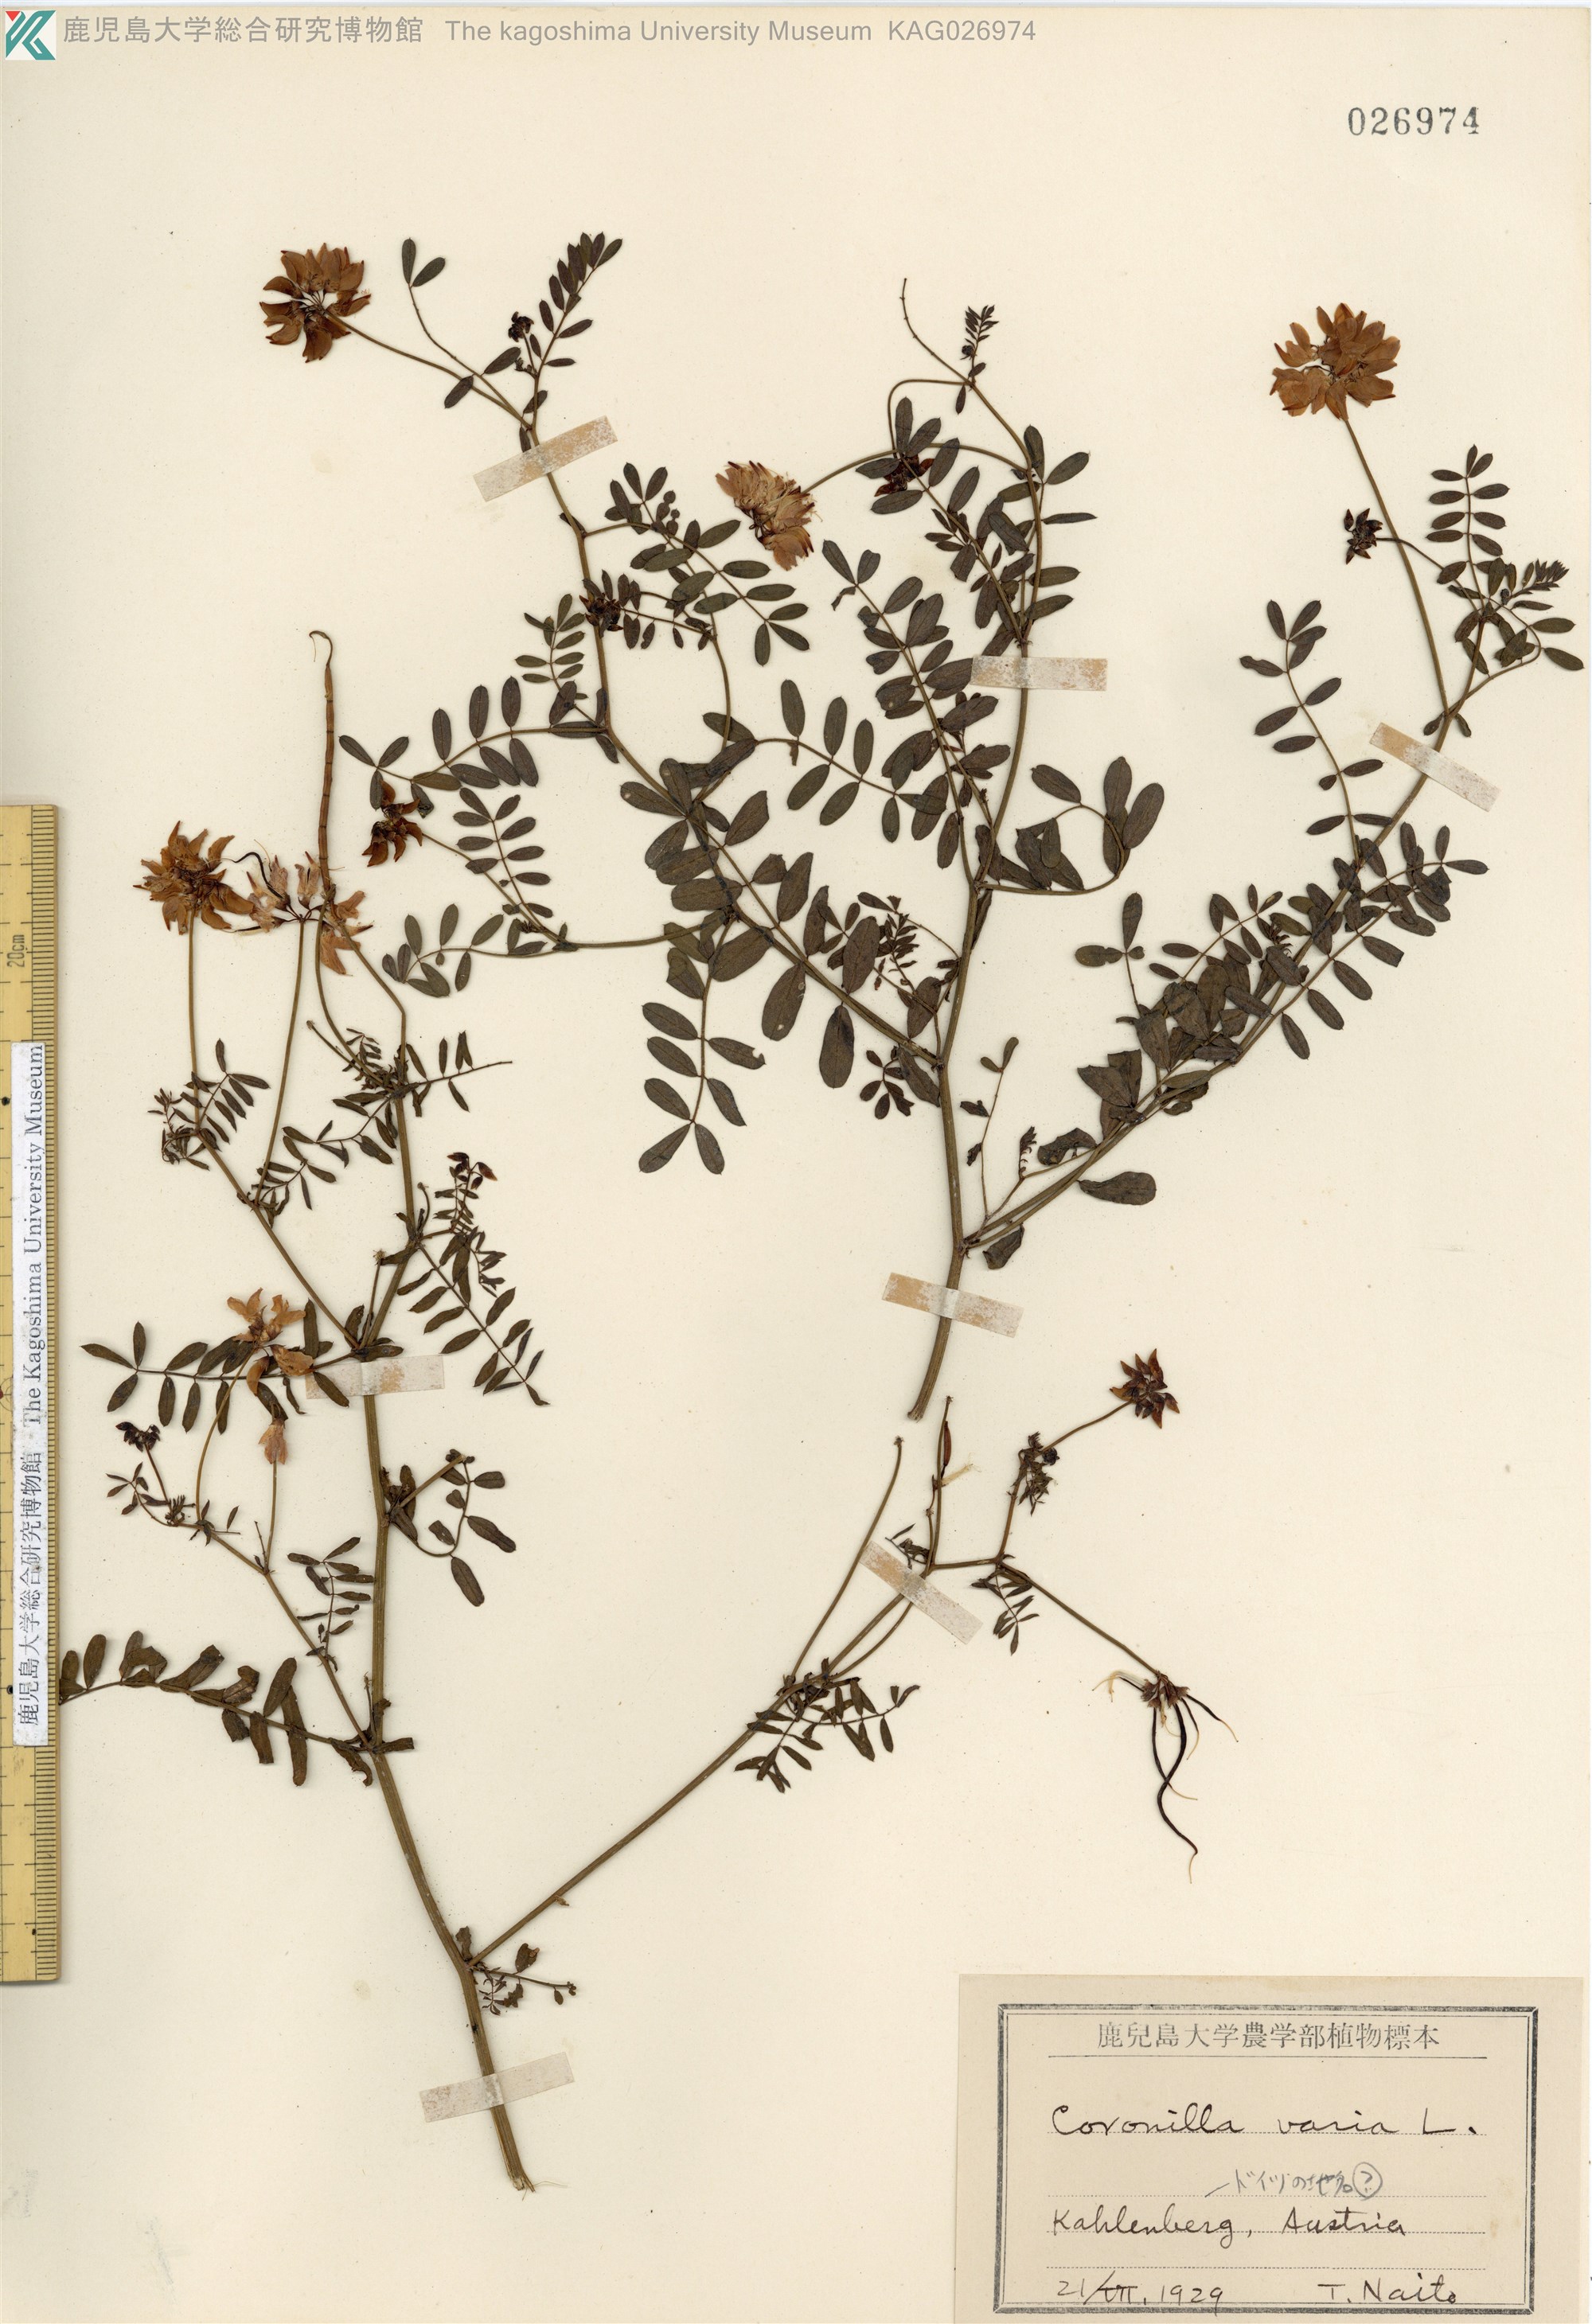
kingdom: Plantae
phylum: Tracheophyta
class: Magnoliopsida
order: Fabales
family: Fabaceae
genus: Coronilla
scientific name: Coronilla varia
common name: Crownvetch
